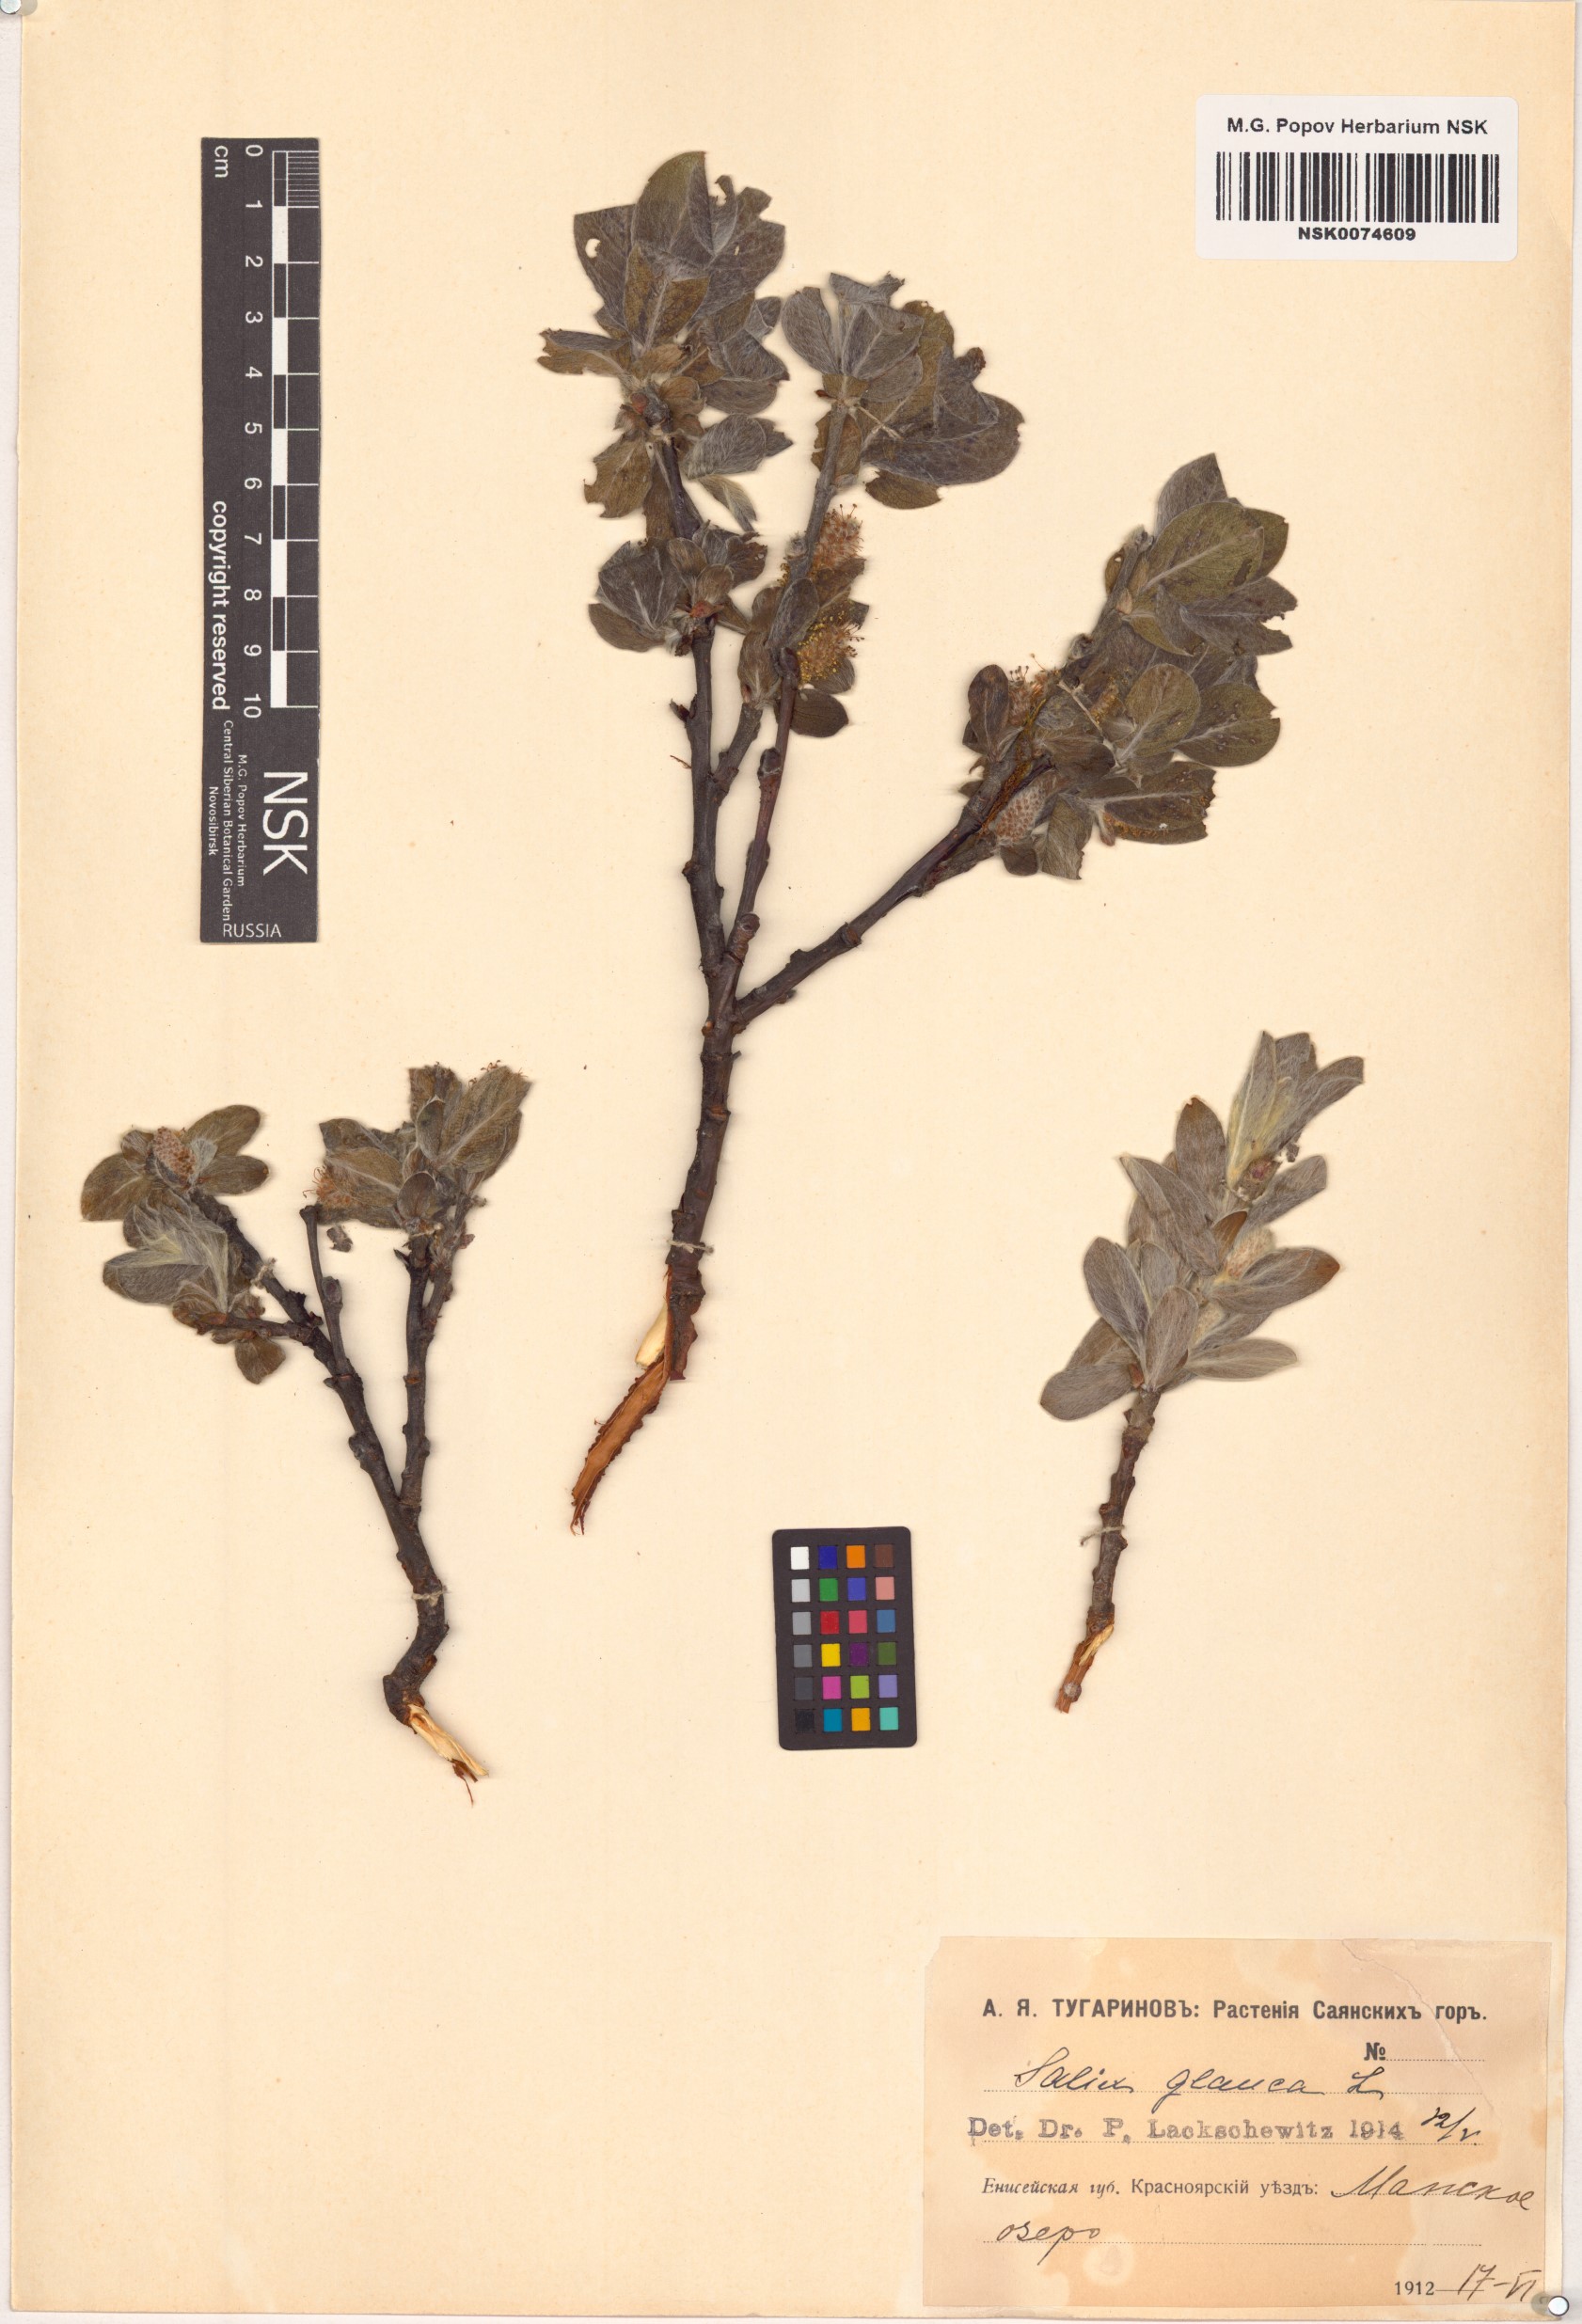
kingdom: Plantae
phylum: Tracheophyta
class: Magnoliopsida
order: Malpighiales
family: Salicaceae
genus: Salix
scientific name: Salix glauca
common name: Glaucous willow
